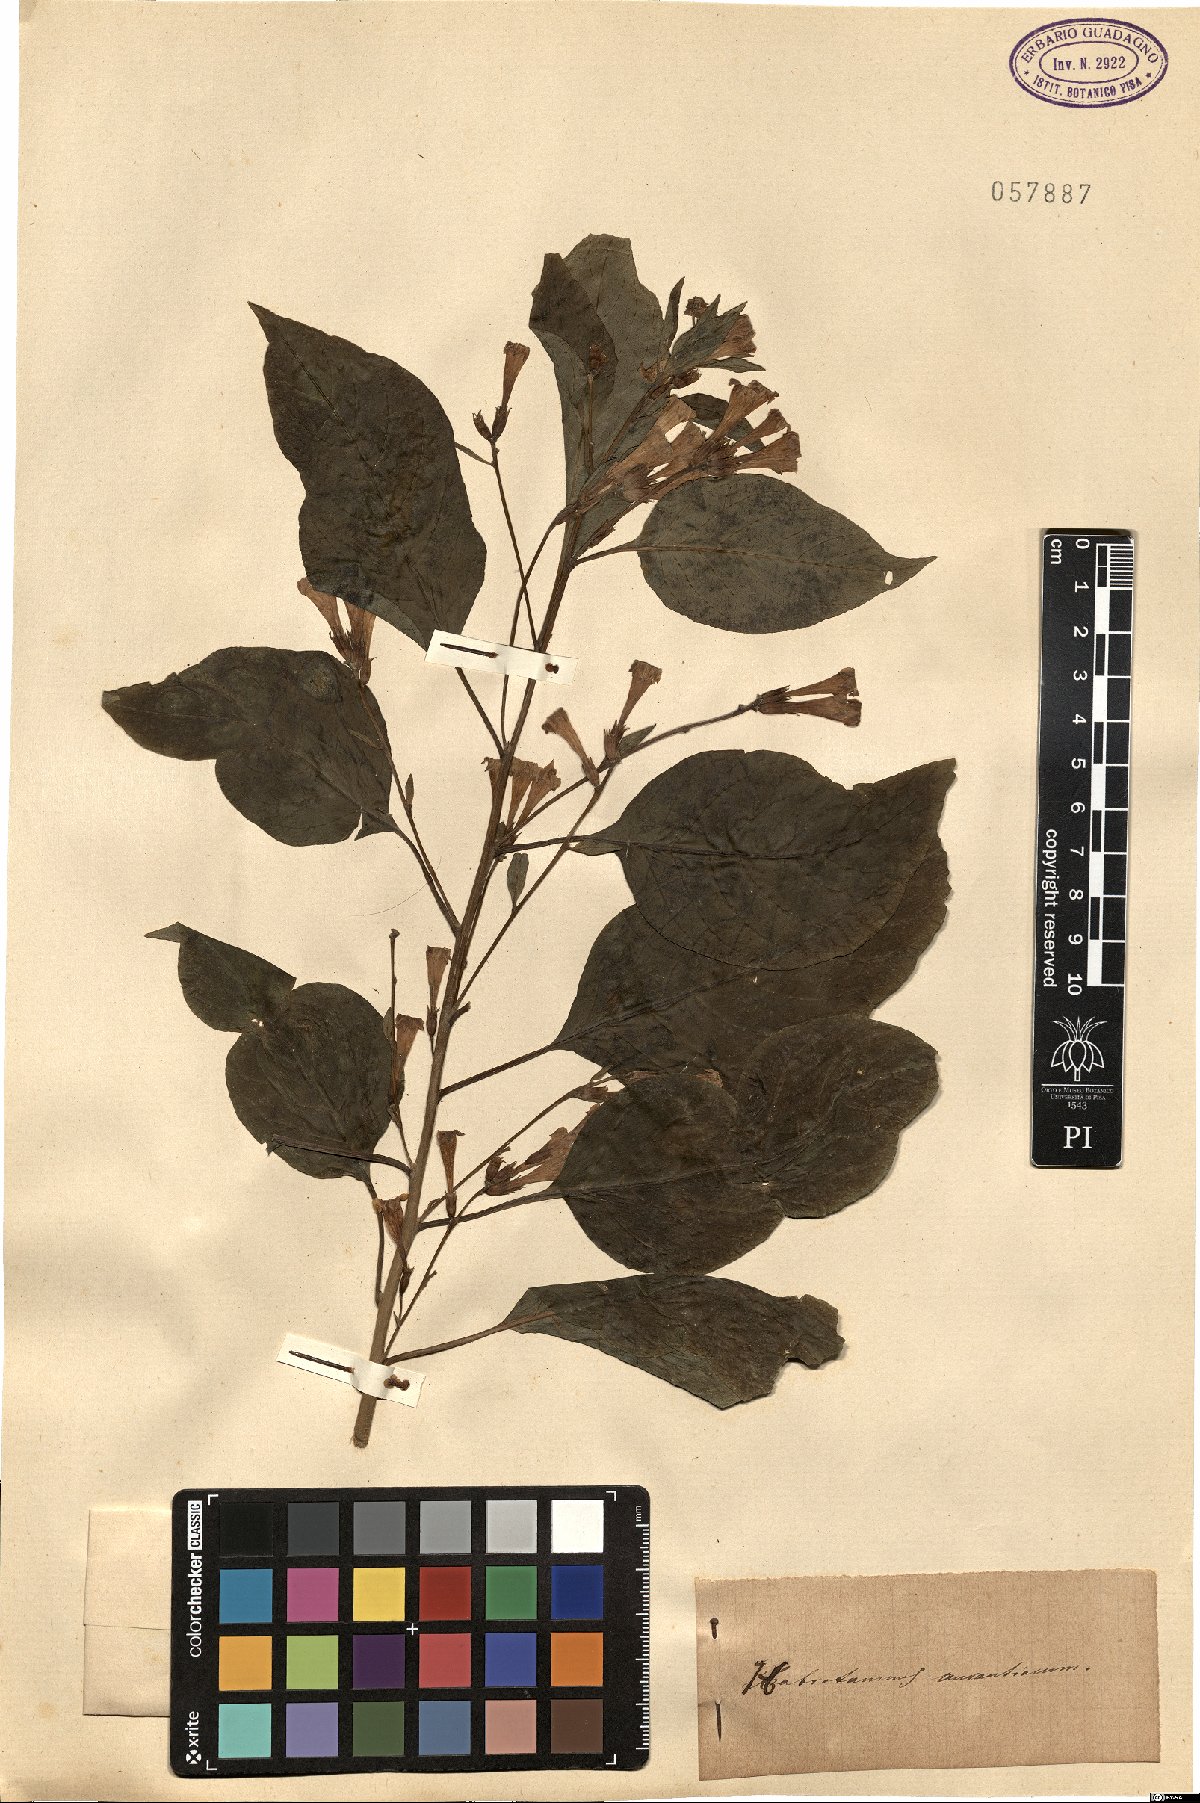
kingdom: Plantae
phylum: Tracheophyta
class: Magnoliopsida
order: Solanales
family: Solanaceae
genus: Cestrum
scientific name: Cestrum aurantiacum
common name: Orange cestrum
